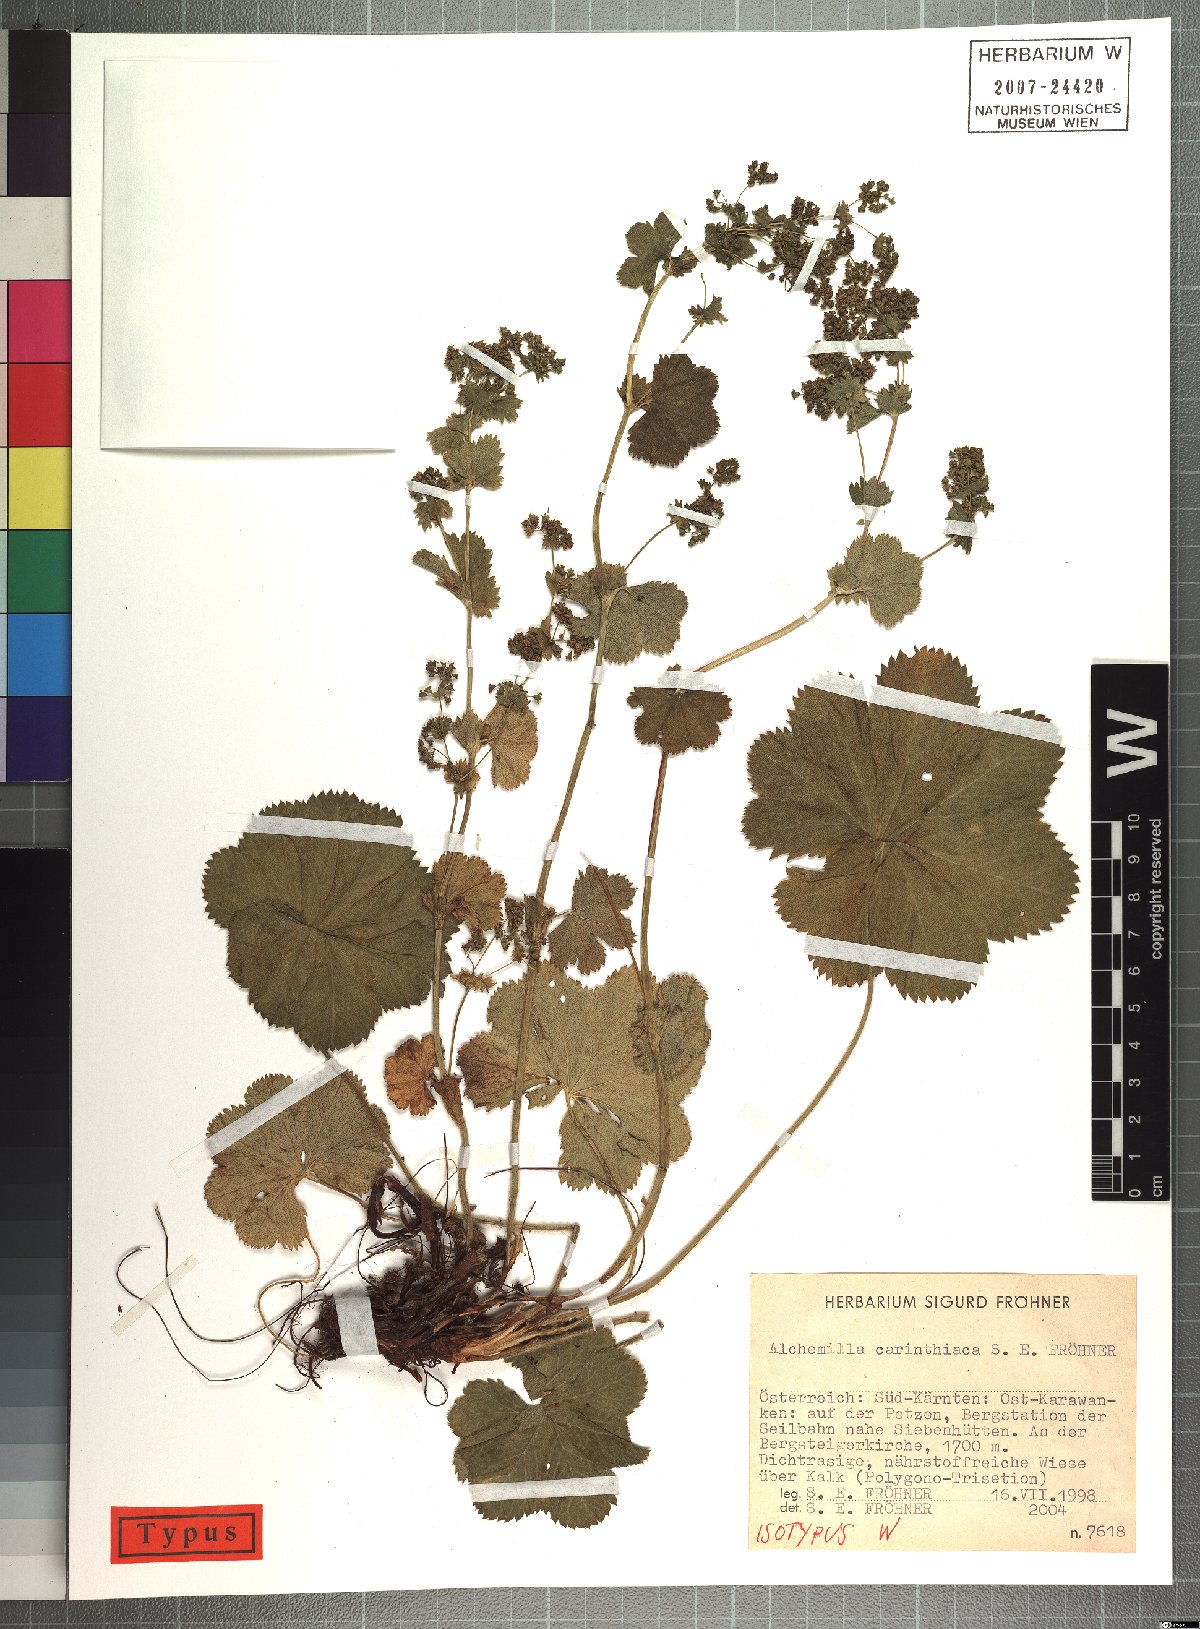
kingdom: Plantae
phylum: Tracheophyta
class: Magnoliopsida
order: Rosales
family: Rosaceae
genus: Alchemilla
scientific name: Alchemilla carinthiaca
